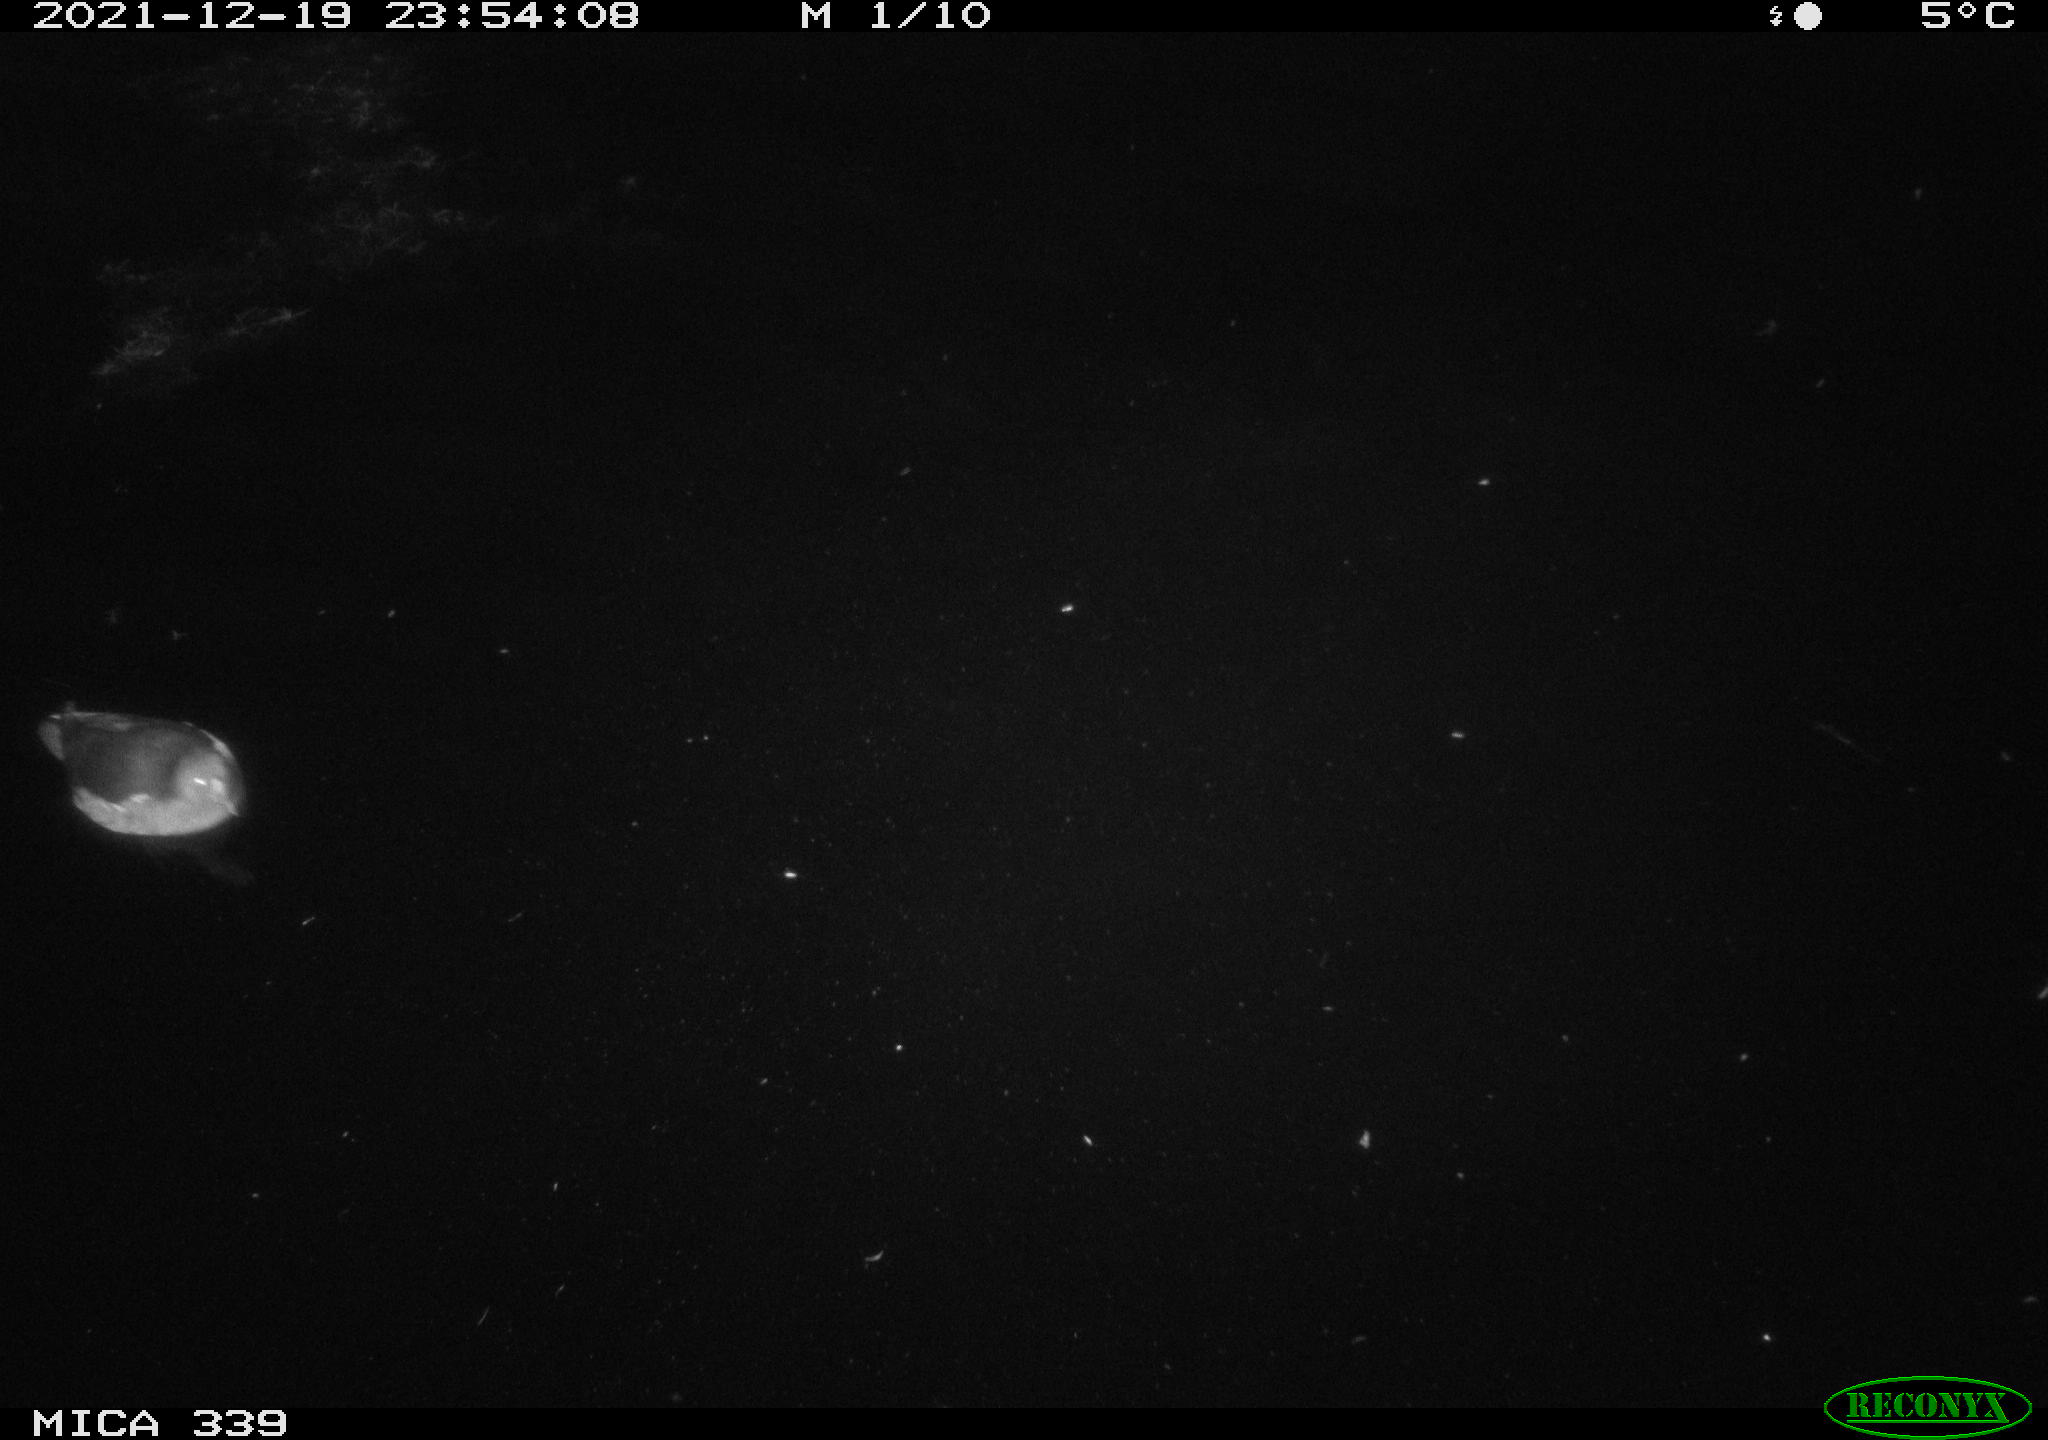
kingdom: Animalia
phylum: Chordata
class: Aves
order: Gruiformes
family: Rallidae
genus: Gallinula
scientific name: Gallinula chloropus
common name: Common moorhen
